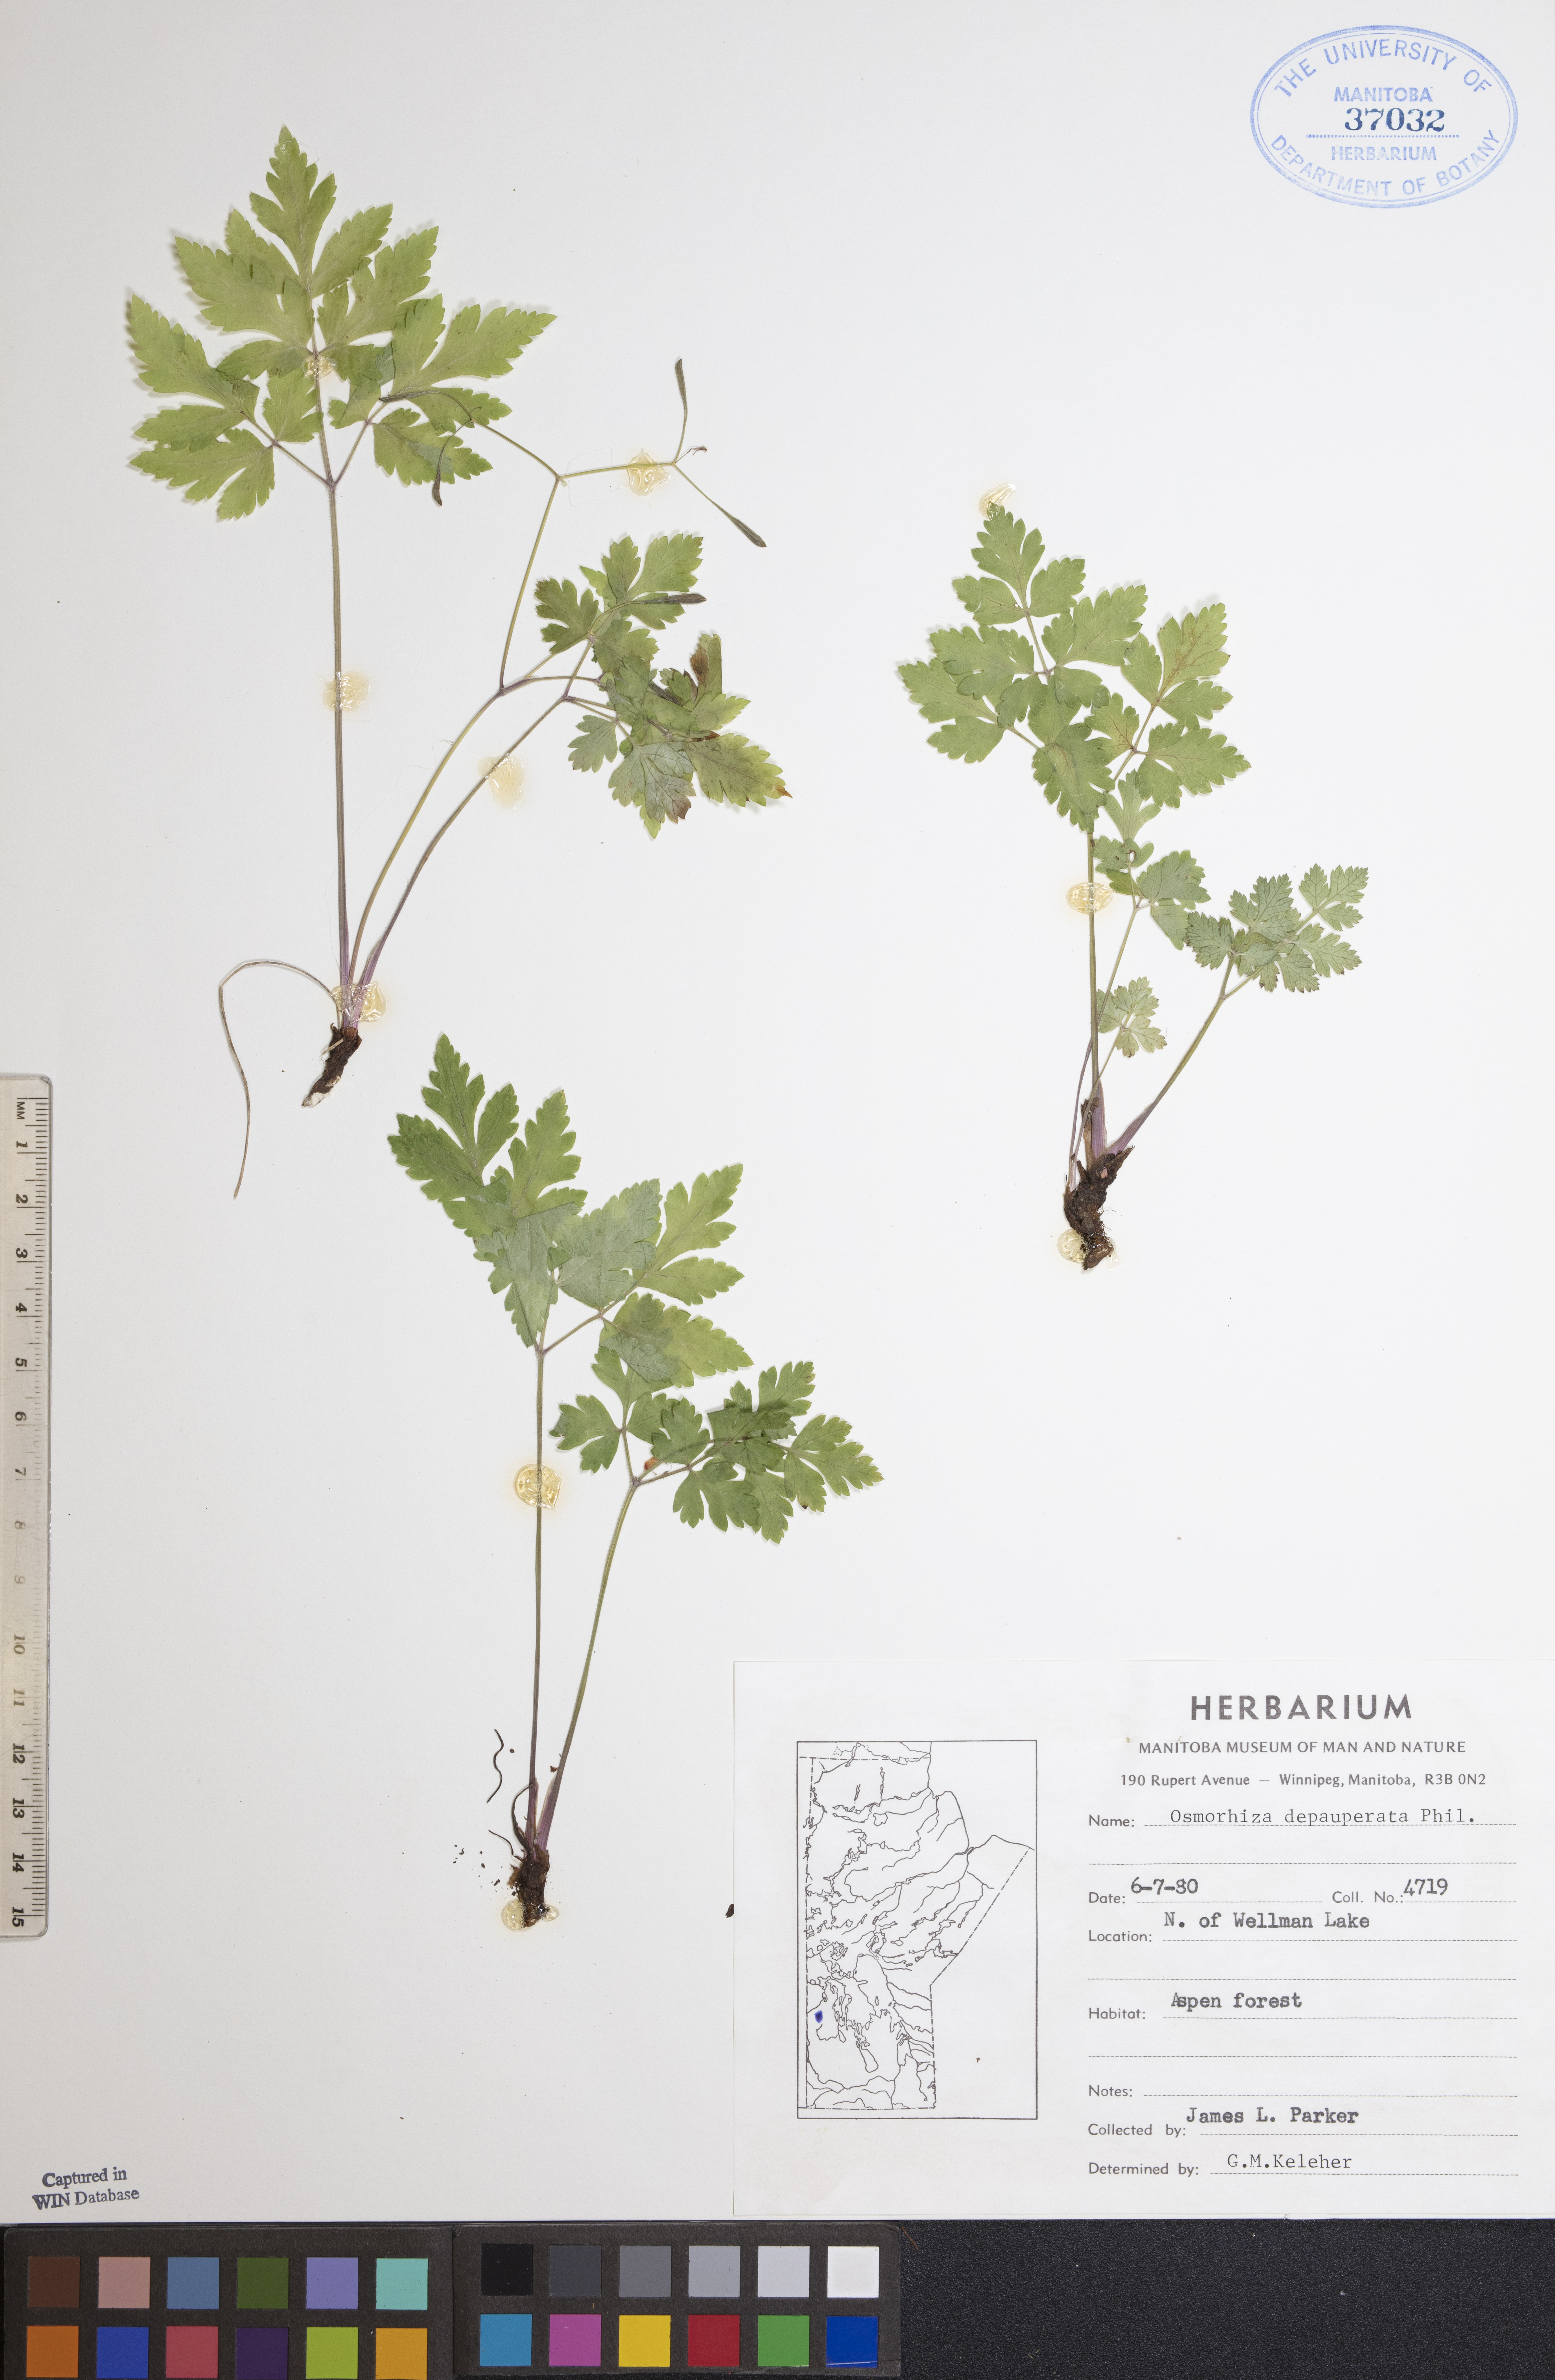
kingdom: Plantae
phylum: Tracheophyta
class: Magnoliopsida
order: Apiales
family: Apiaceae
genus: Osmorhiza
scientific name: Osmorhiza depauperata
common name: Blunt sweet cicely
